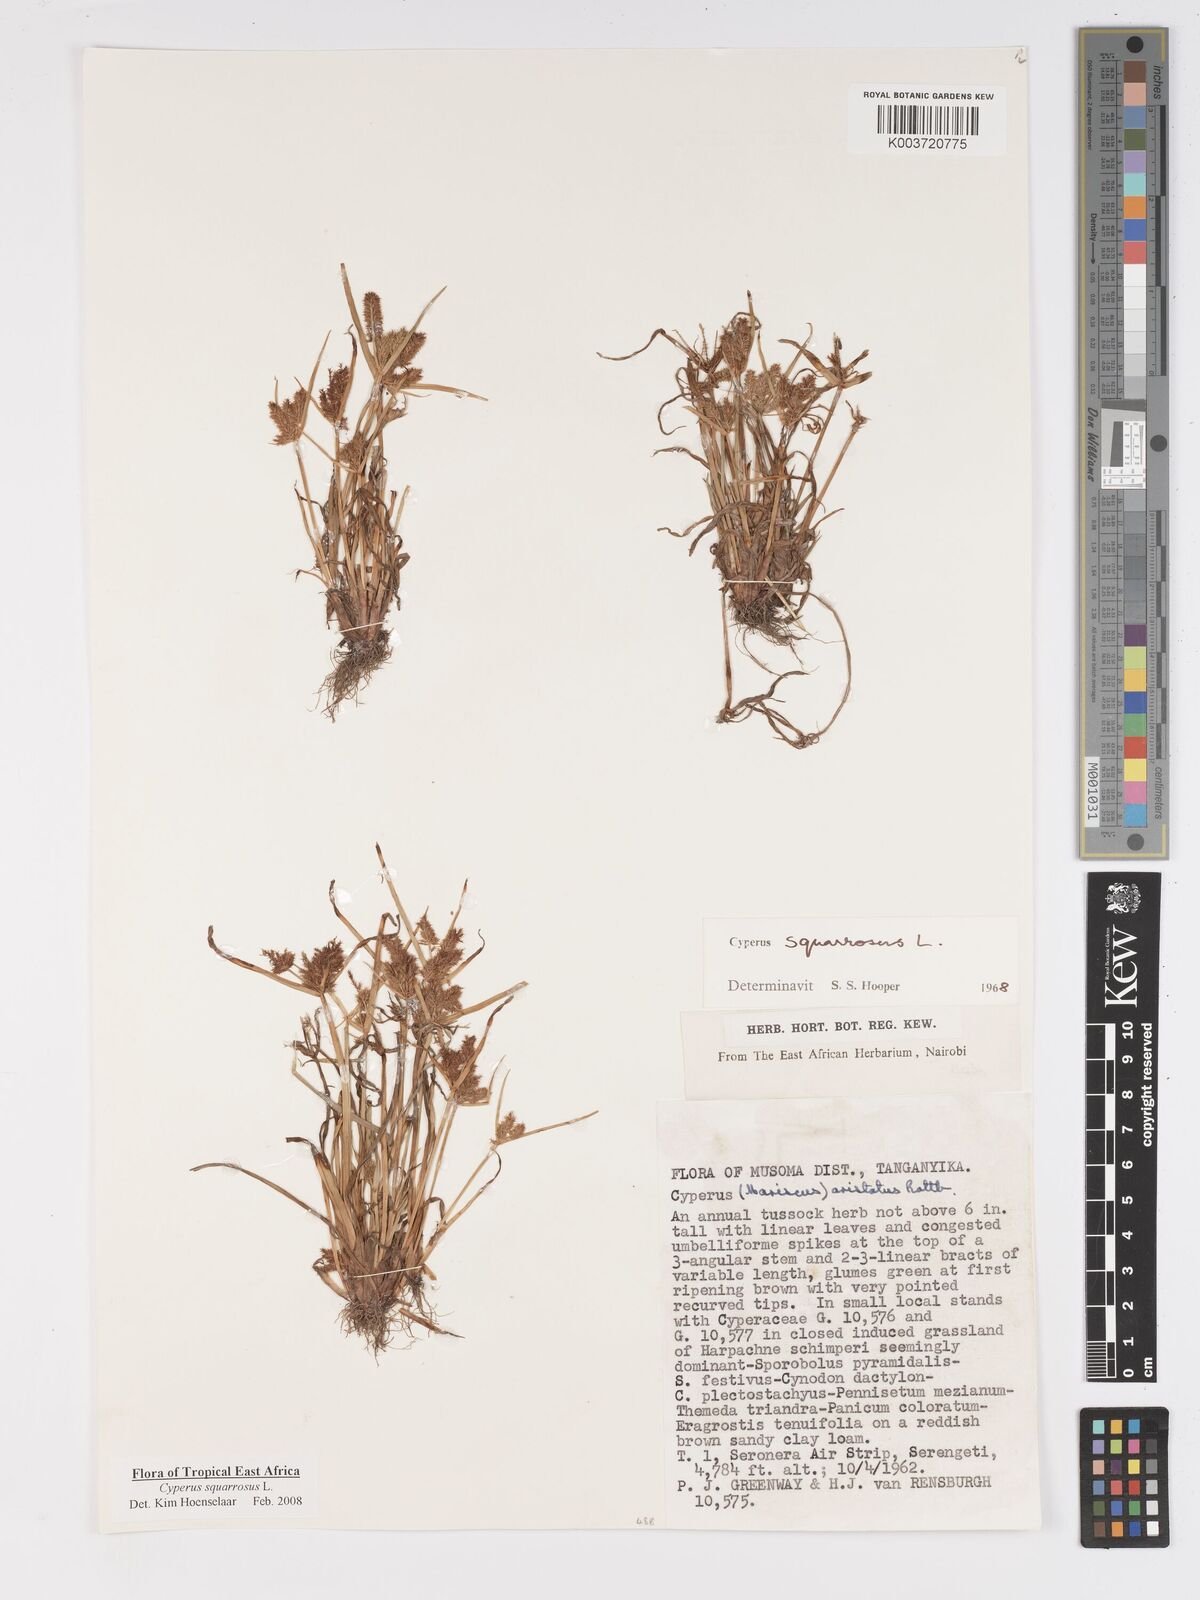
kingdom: Plantae
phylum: Tracheophyta
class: Liliopsida
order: Poales
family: Cyperaceae
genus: Cyperus
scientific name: Cyperus squarrosus
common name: Awned cyperus
